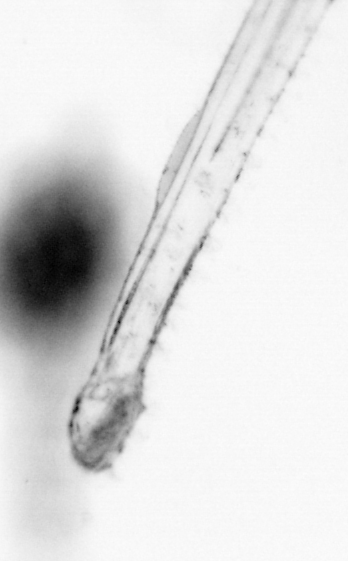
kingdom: Animalia
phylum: Chaetognatha
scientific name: Chaetognatha
